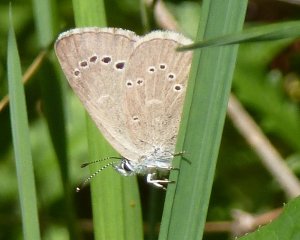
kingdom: Animalia
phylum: Arthropoda
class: Insecta
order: Lepidoptera
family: Lycaenidae
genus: Glaucopsyche
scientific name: Glaucopsyche lygdamus
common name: Silvery Blue
